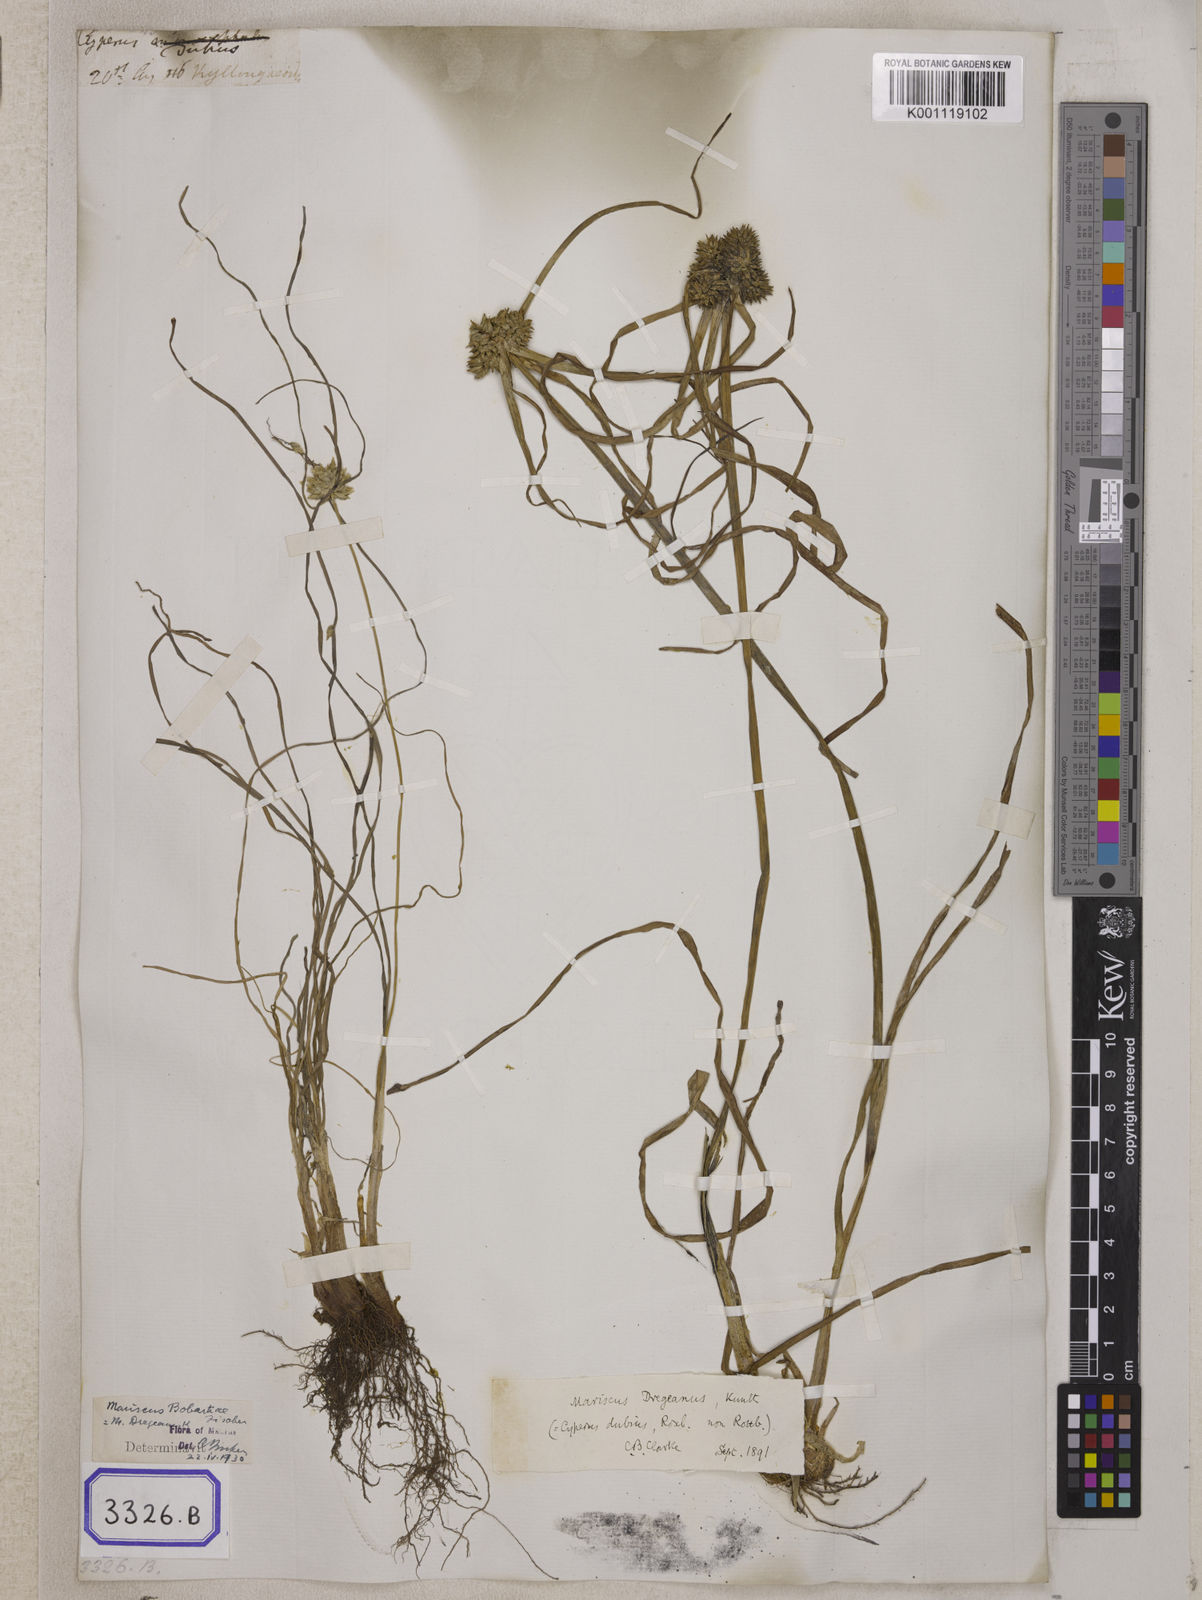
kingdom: Plantae
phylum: Tracheophyta
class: Liliopsida
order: Poales
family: Cyperaceae
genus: Cyperus
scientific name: Cyperus
